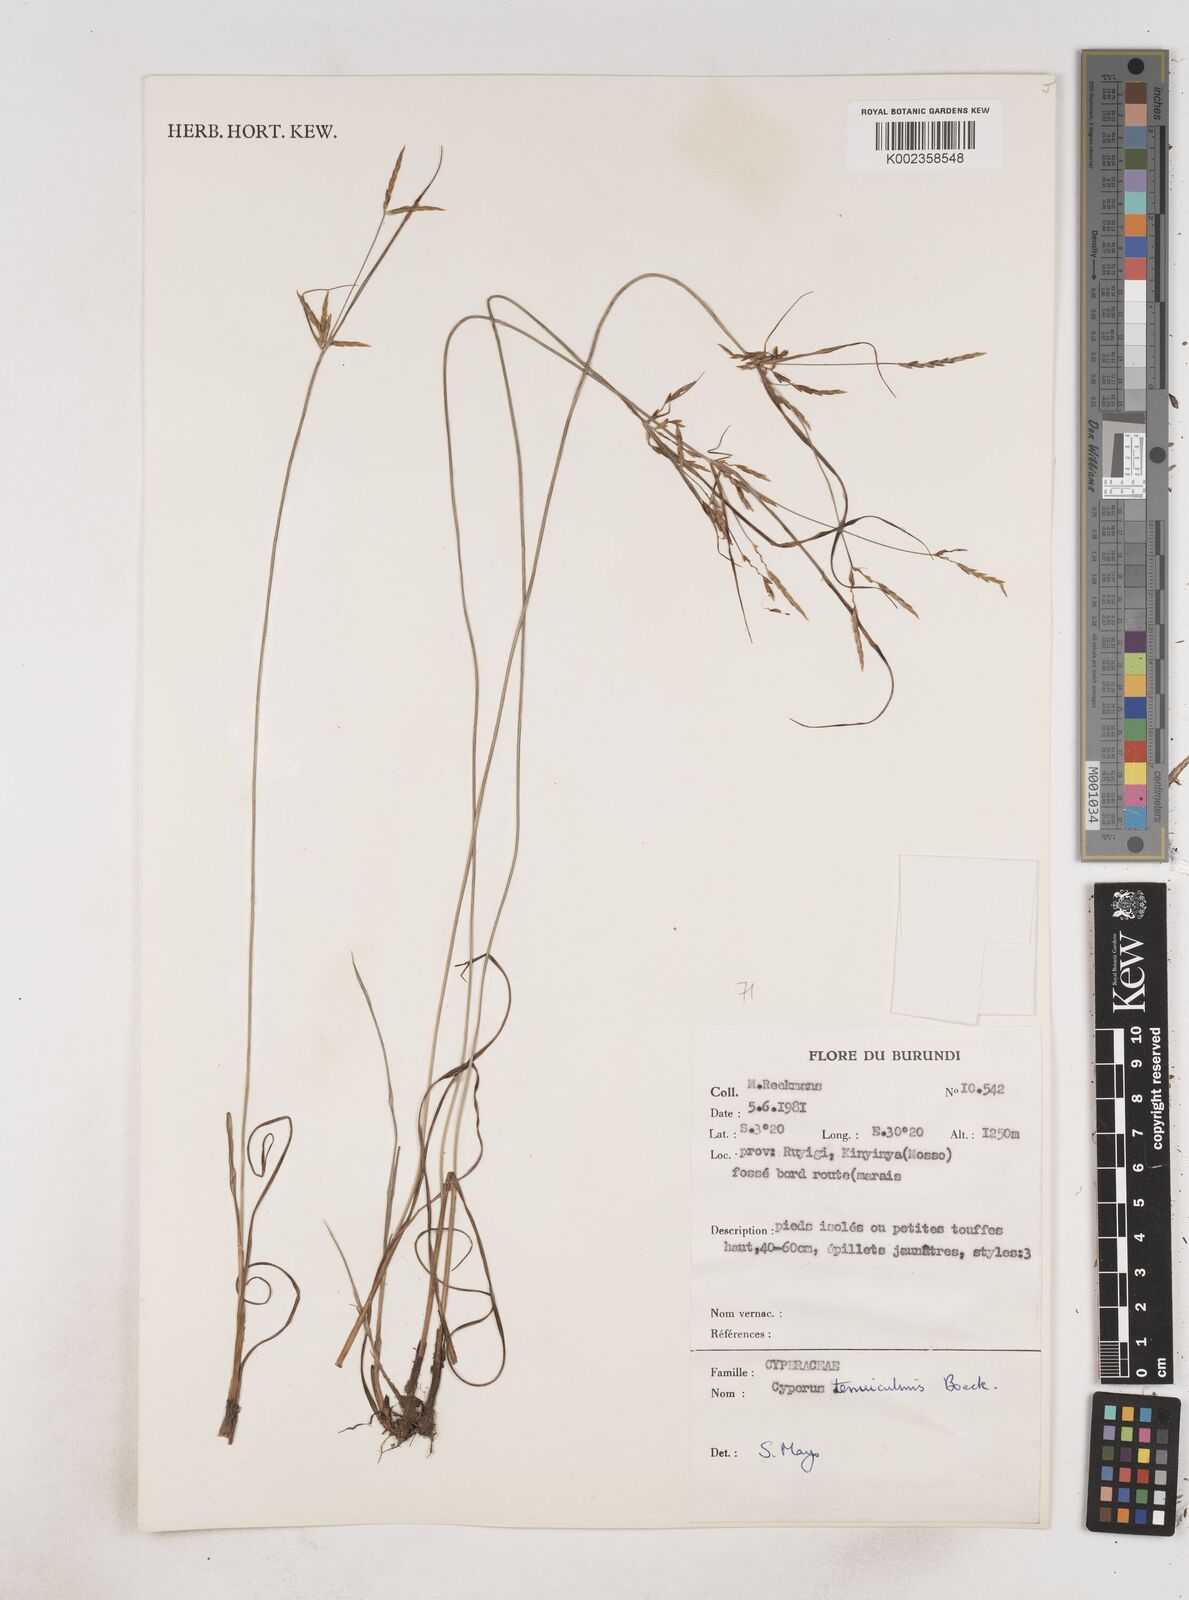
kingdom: Plantae
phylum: Tracheophyta
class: Liliopsida
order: Poales
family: Cyperaceae
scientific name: Cyperaceae
